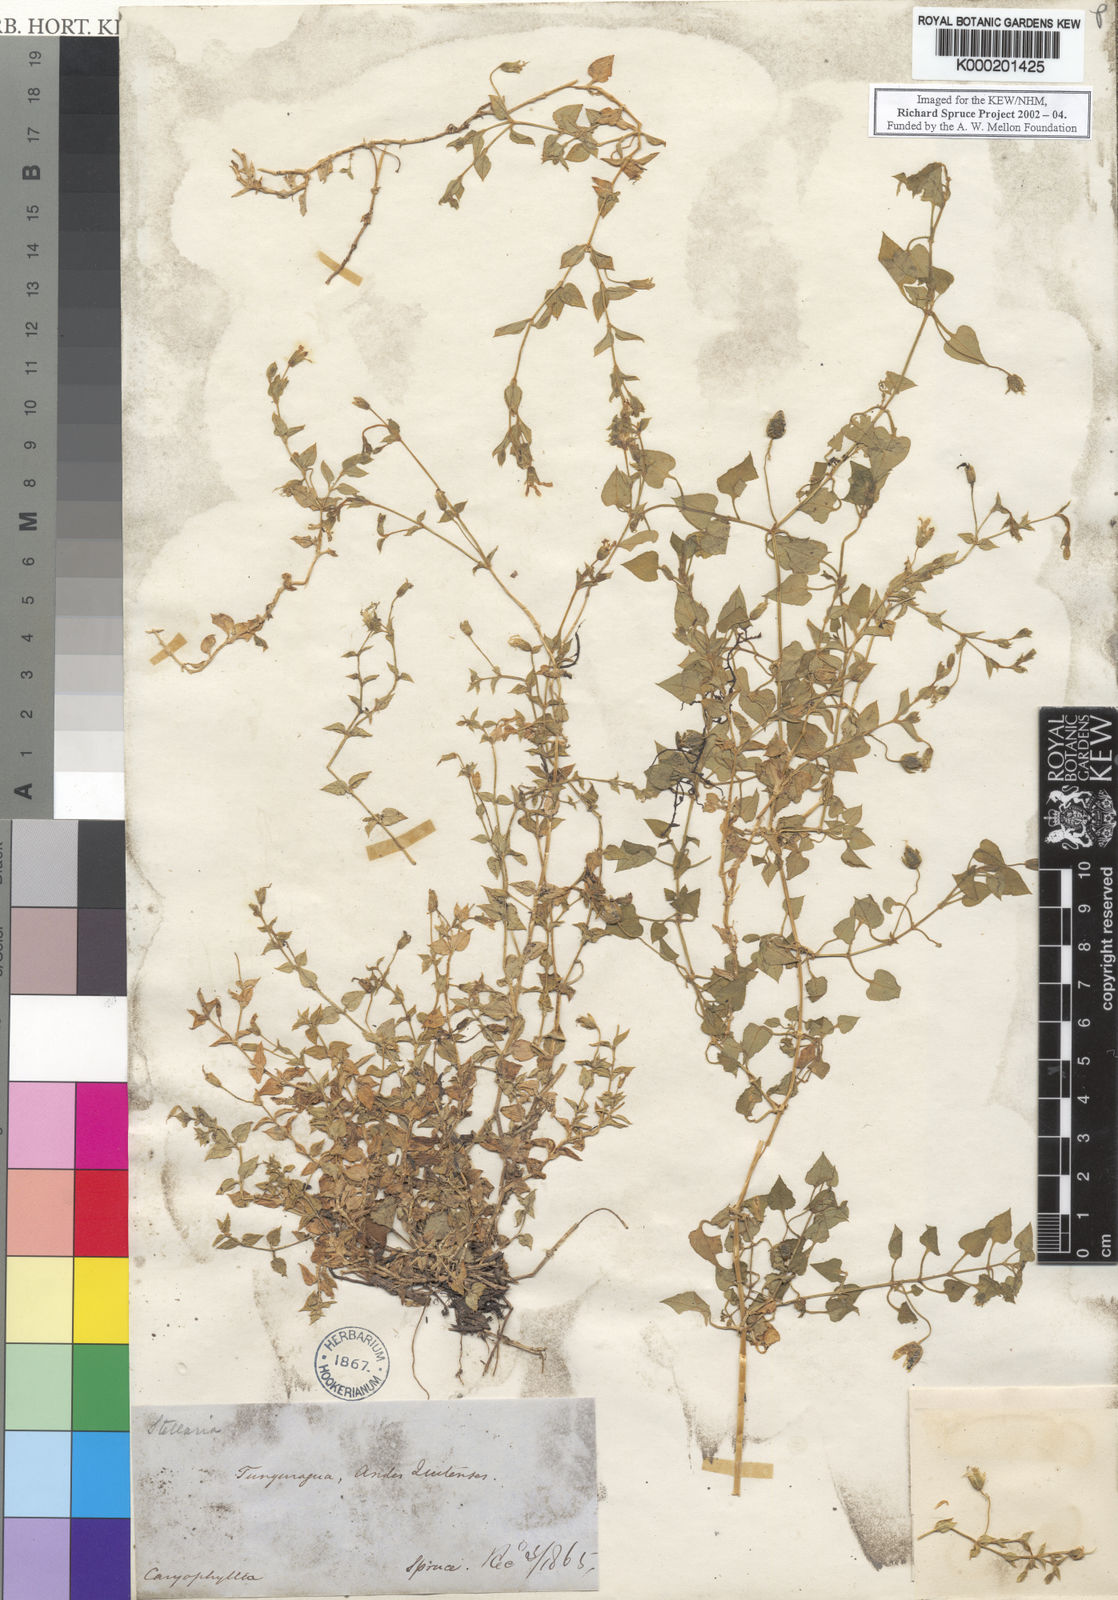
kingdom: Plantae
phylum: Tracheophyta
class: Magnoliopsida
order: Caryophyllales
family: Caryophyllaceae
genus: Stellaria
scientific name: Stellaria
